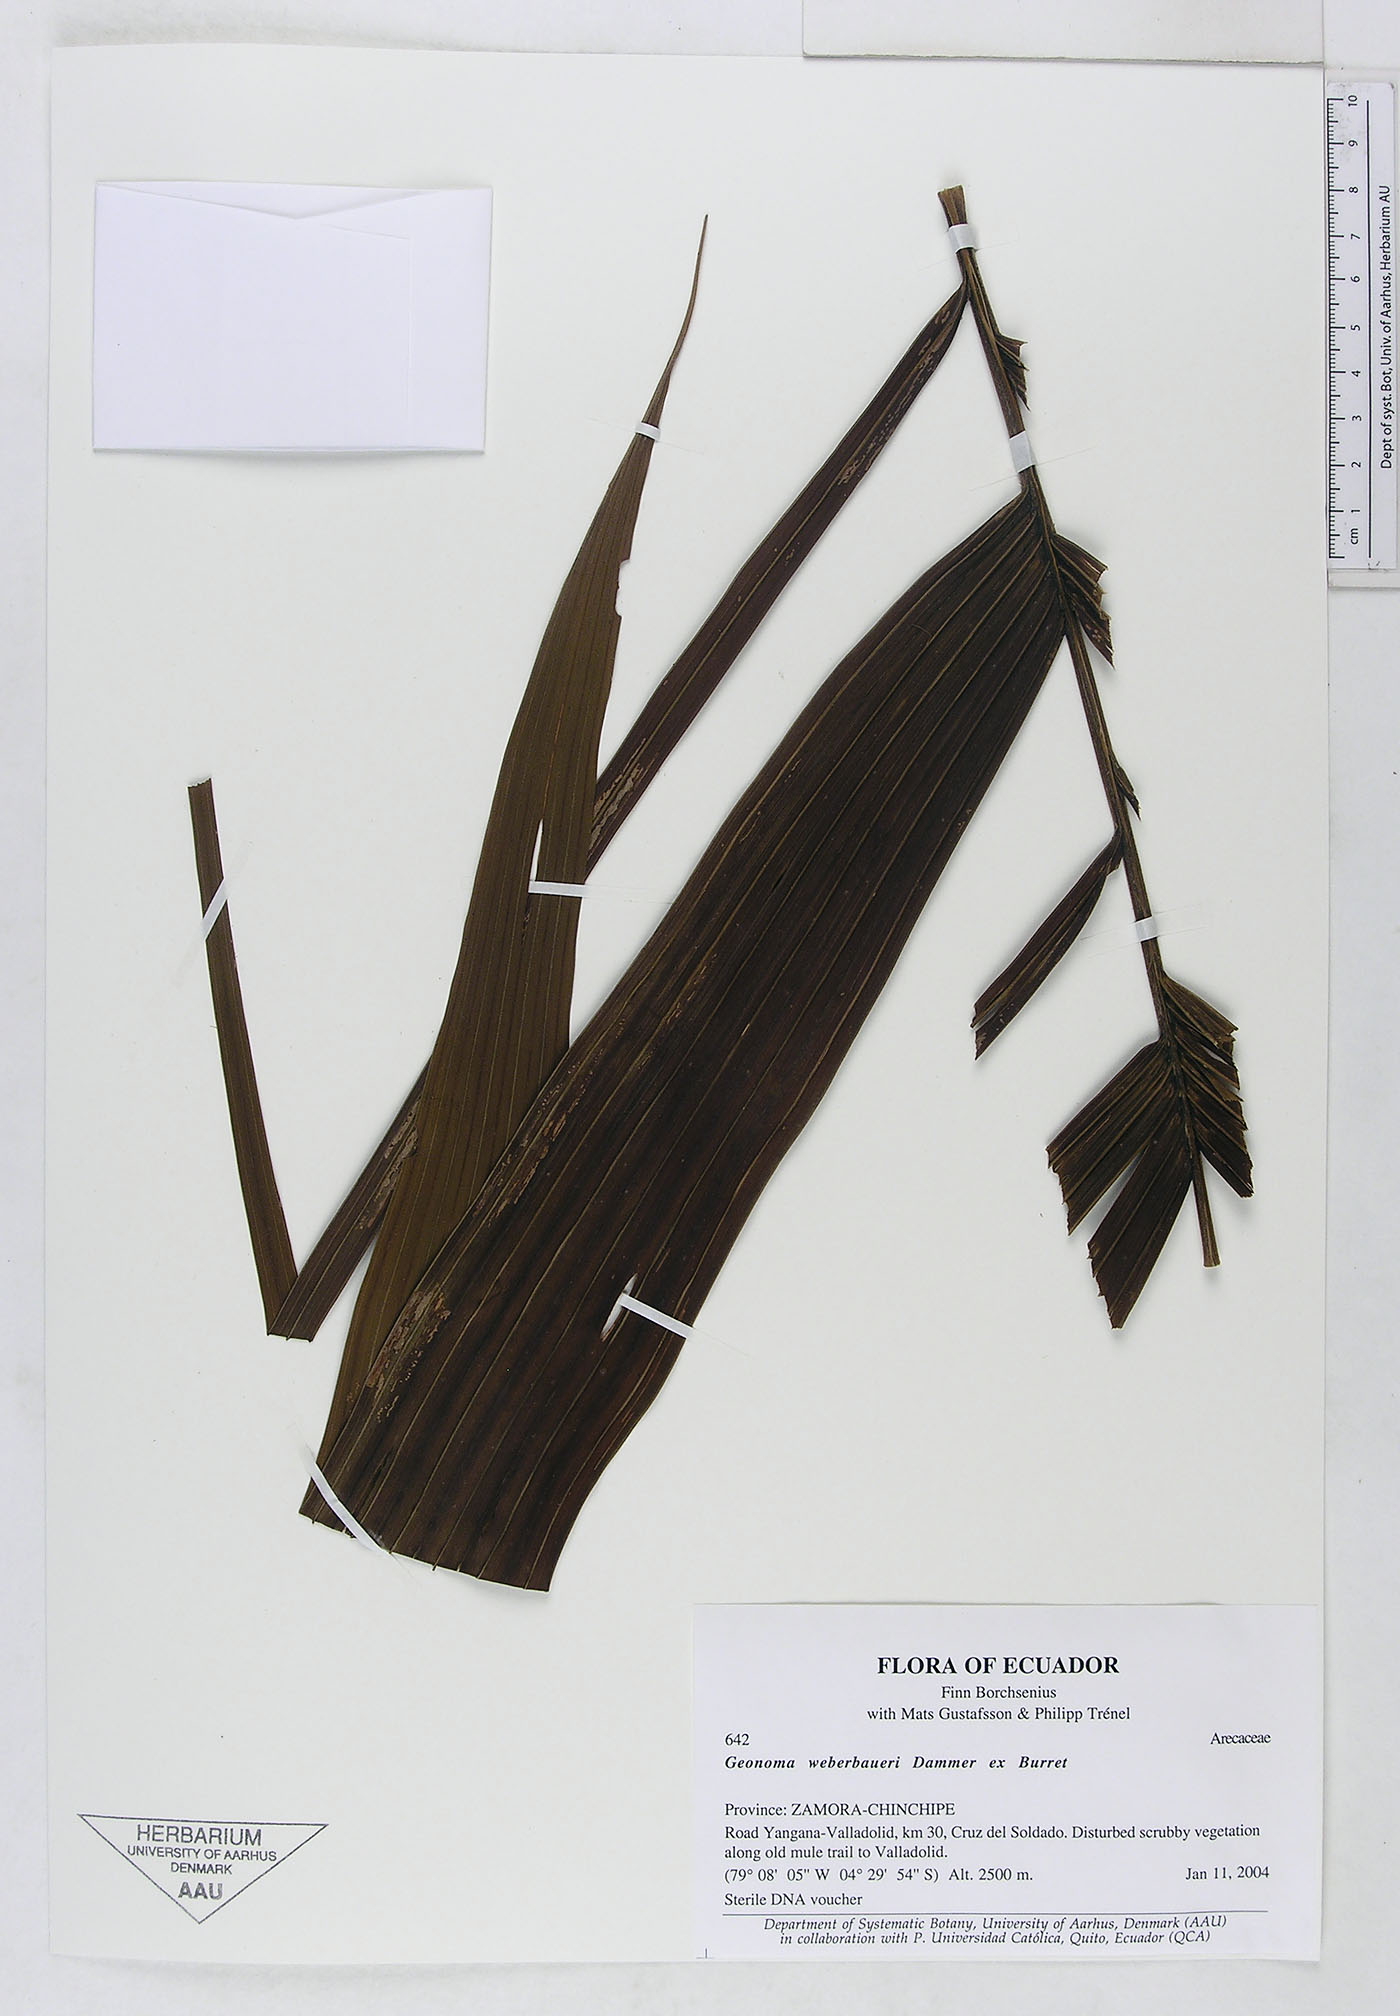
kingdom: Plantae
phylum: Tracheophyta
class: Liliopsida
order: Arecales
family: Arecaceae
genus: Geonoma
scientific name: Geonoma undata
